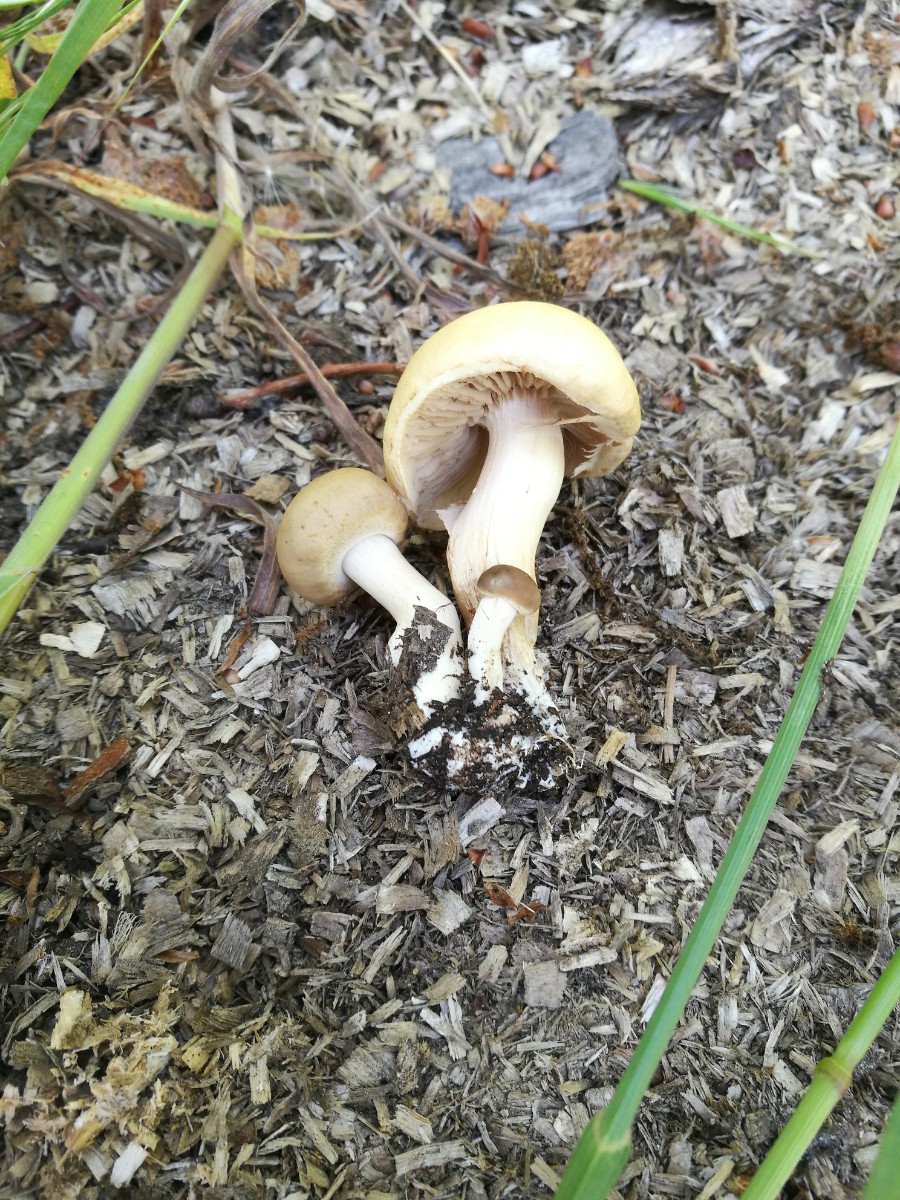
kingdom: Fungi
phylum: Basidiomycota
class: Agaricomycetes
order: Agaricales
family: Strophariaceae
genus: Agrocybe
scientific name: Agrocybe praecox
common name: tidlig agerhat
